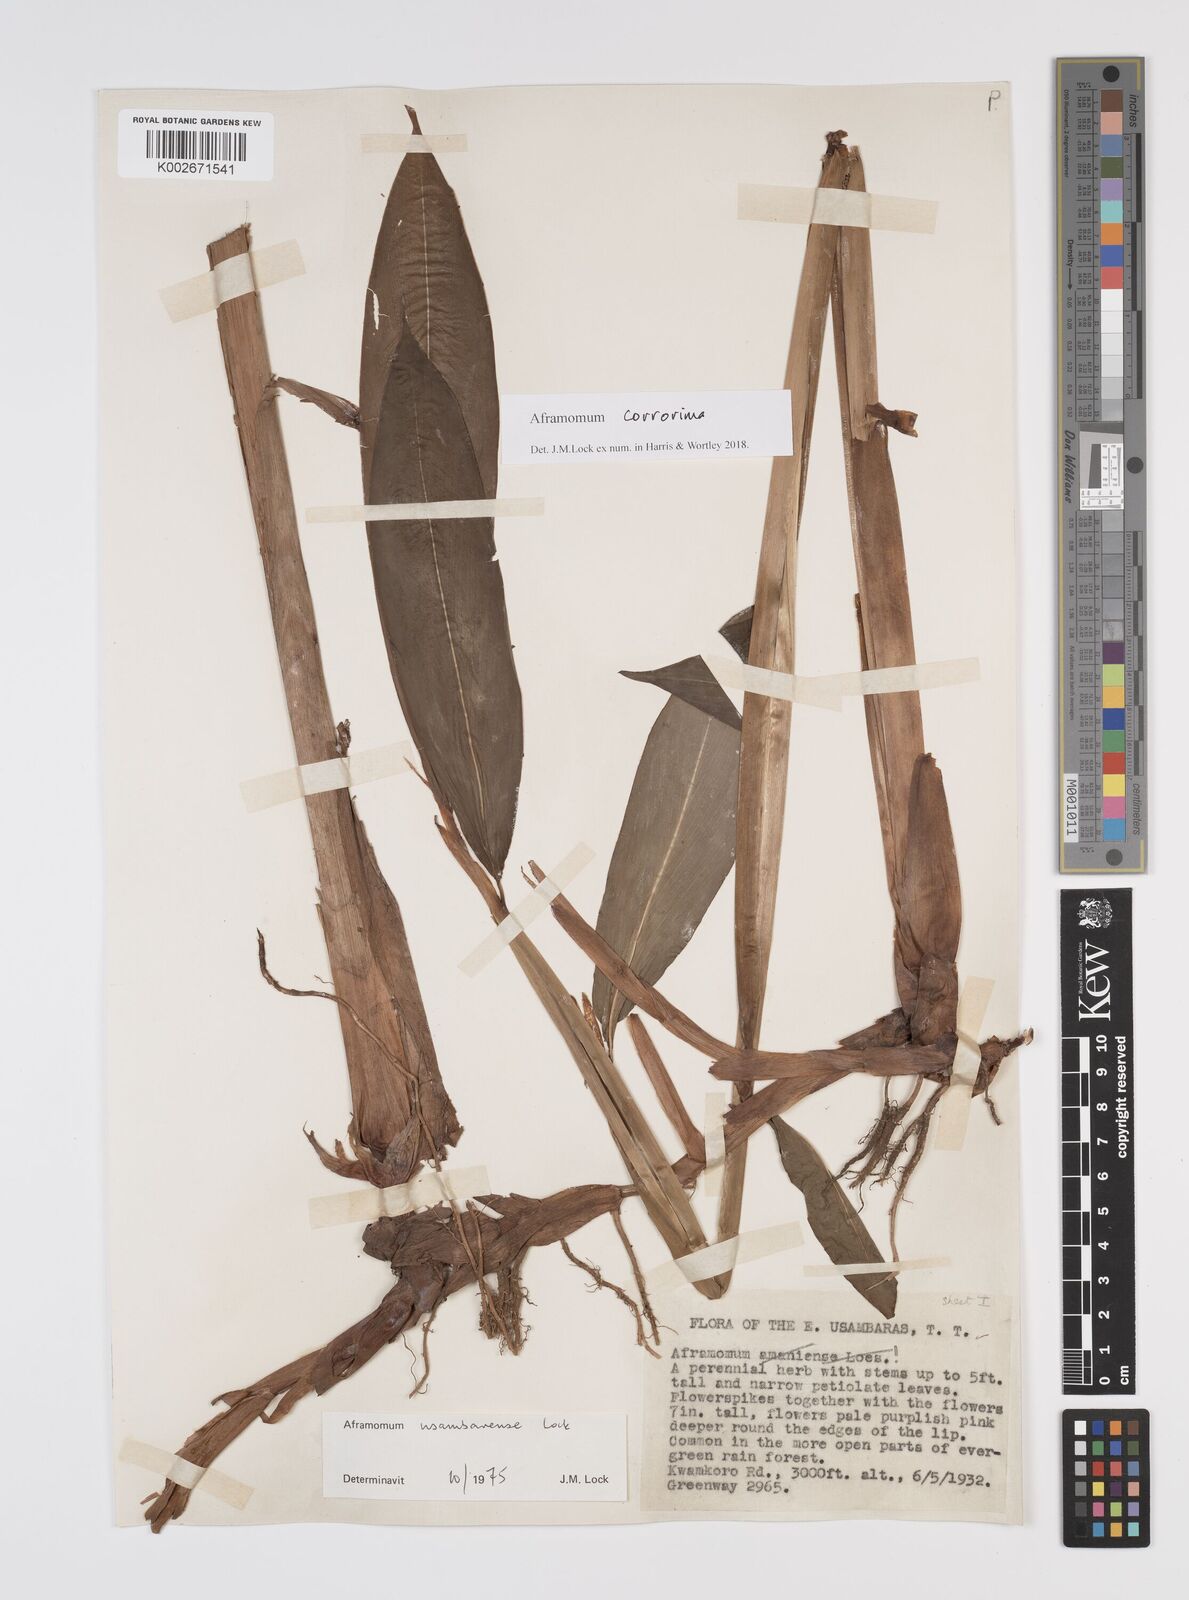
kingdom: Plantae
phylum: Tracheophyta
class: Liliopsida
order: Zingiberales
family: Zingiberaceae
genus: Aframomum
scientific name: Aframomum corrorima
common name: Ethiopian cardamom
